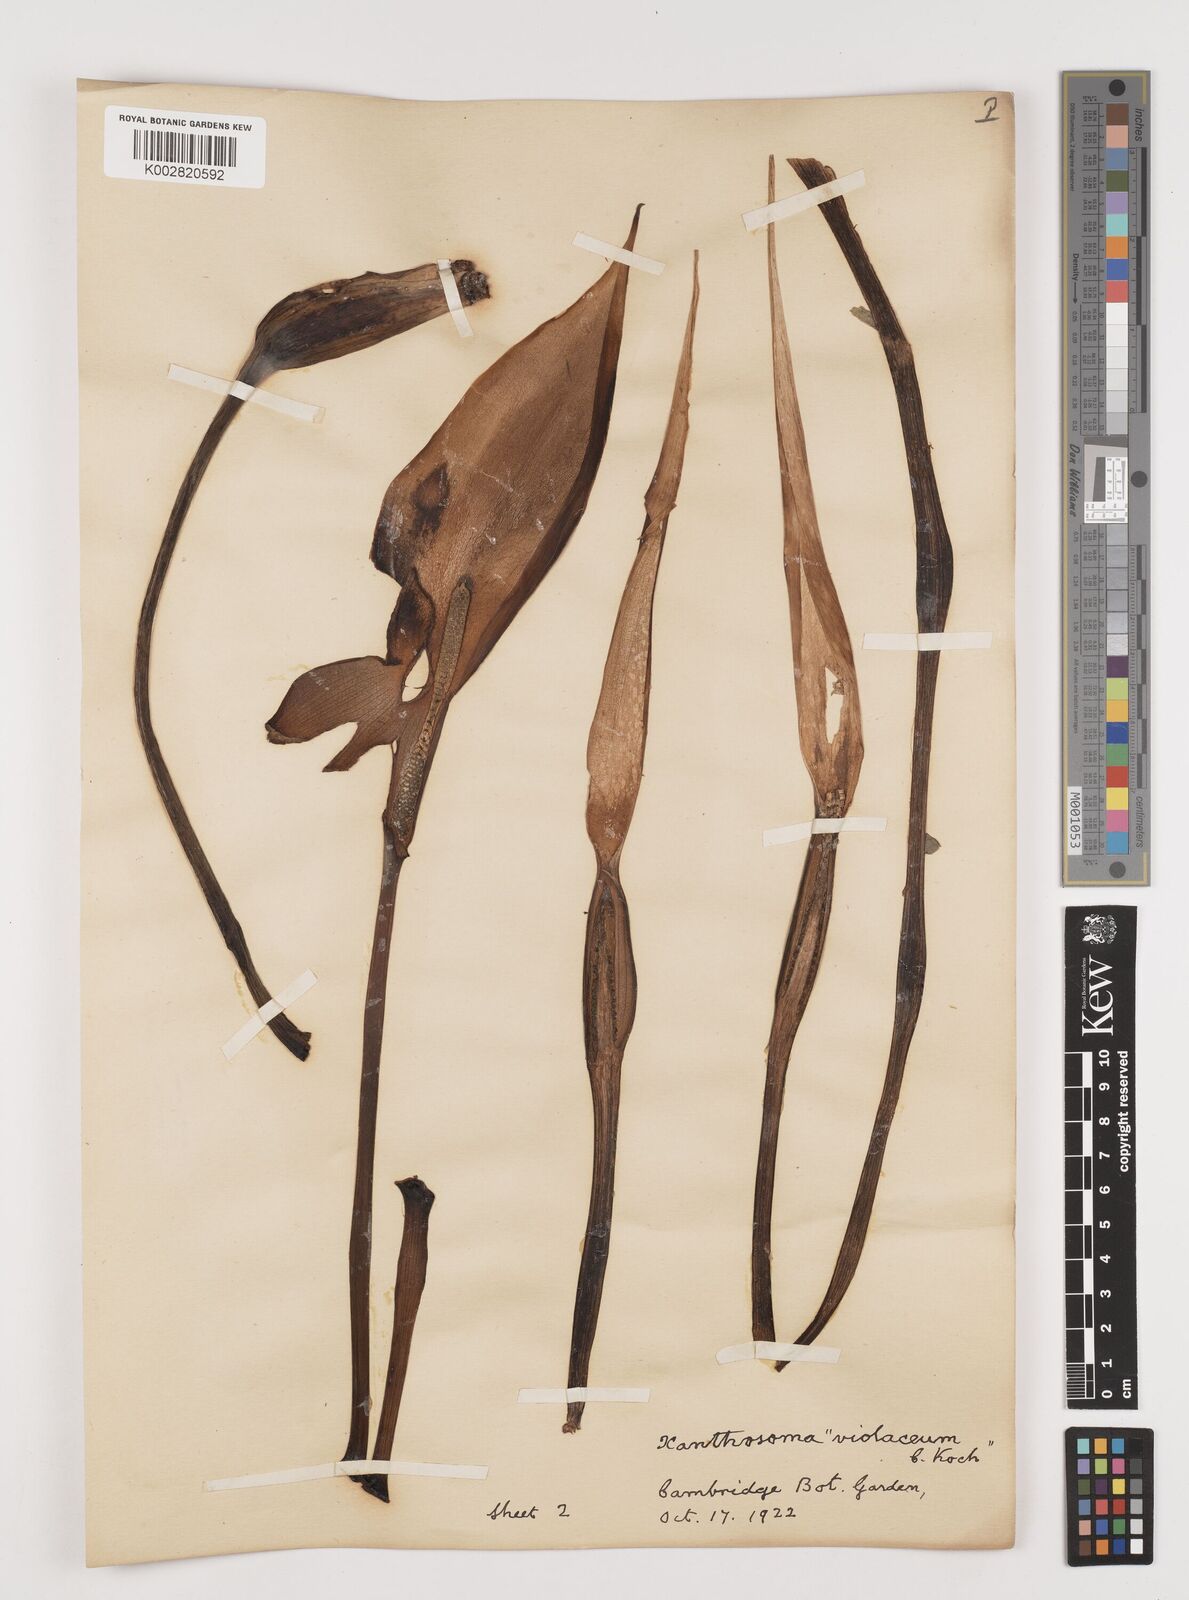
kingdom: Plantae
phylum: Tracheophyta
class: Liliopsida
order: Alismatales
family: Araceae
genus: Colocasia
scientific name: Colocasia esculenta
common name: Taro
